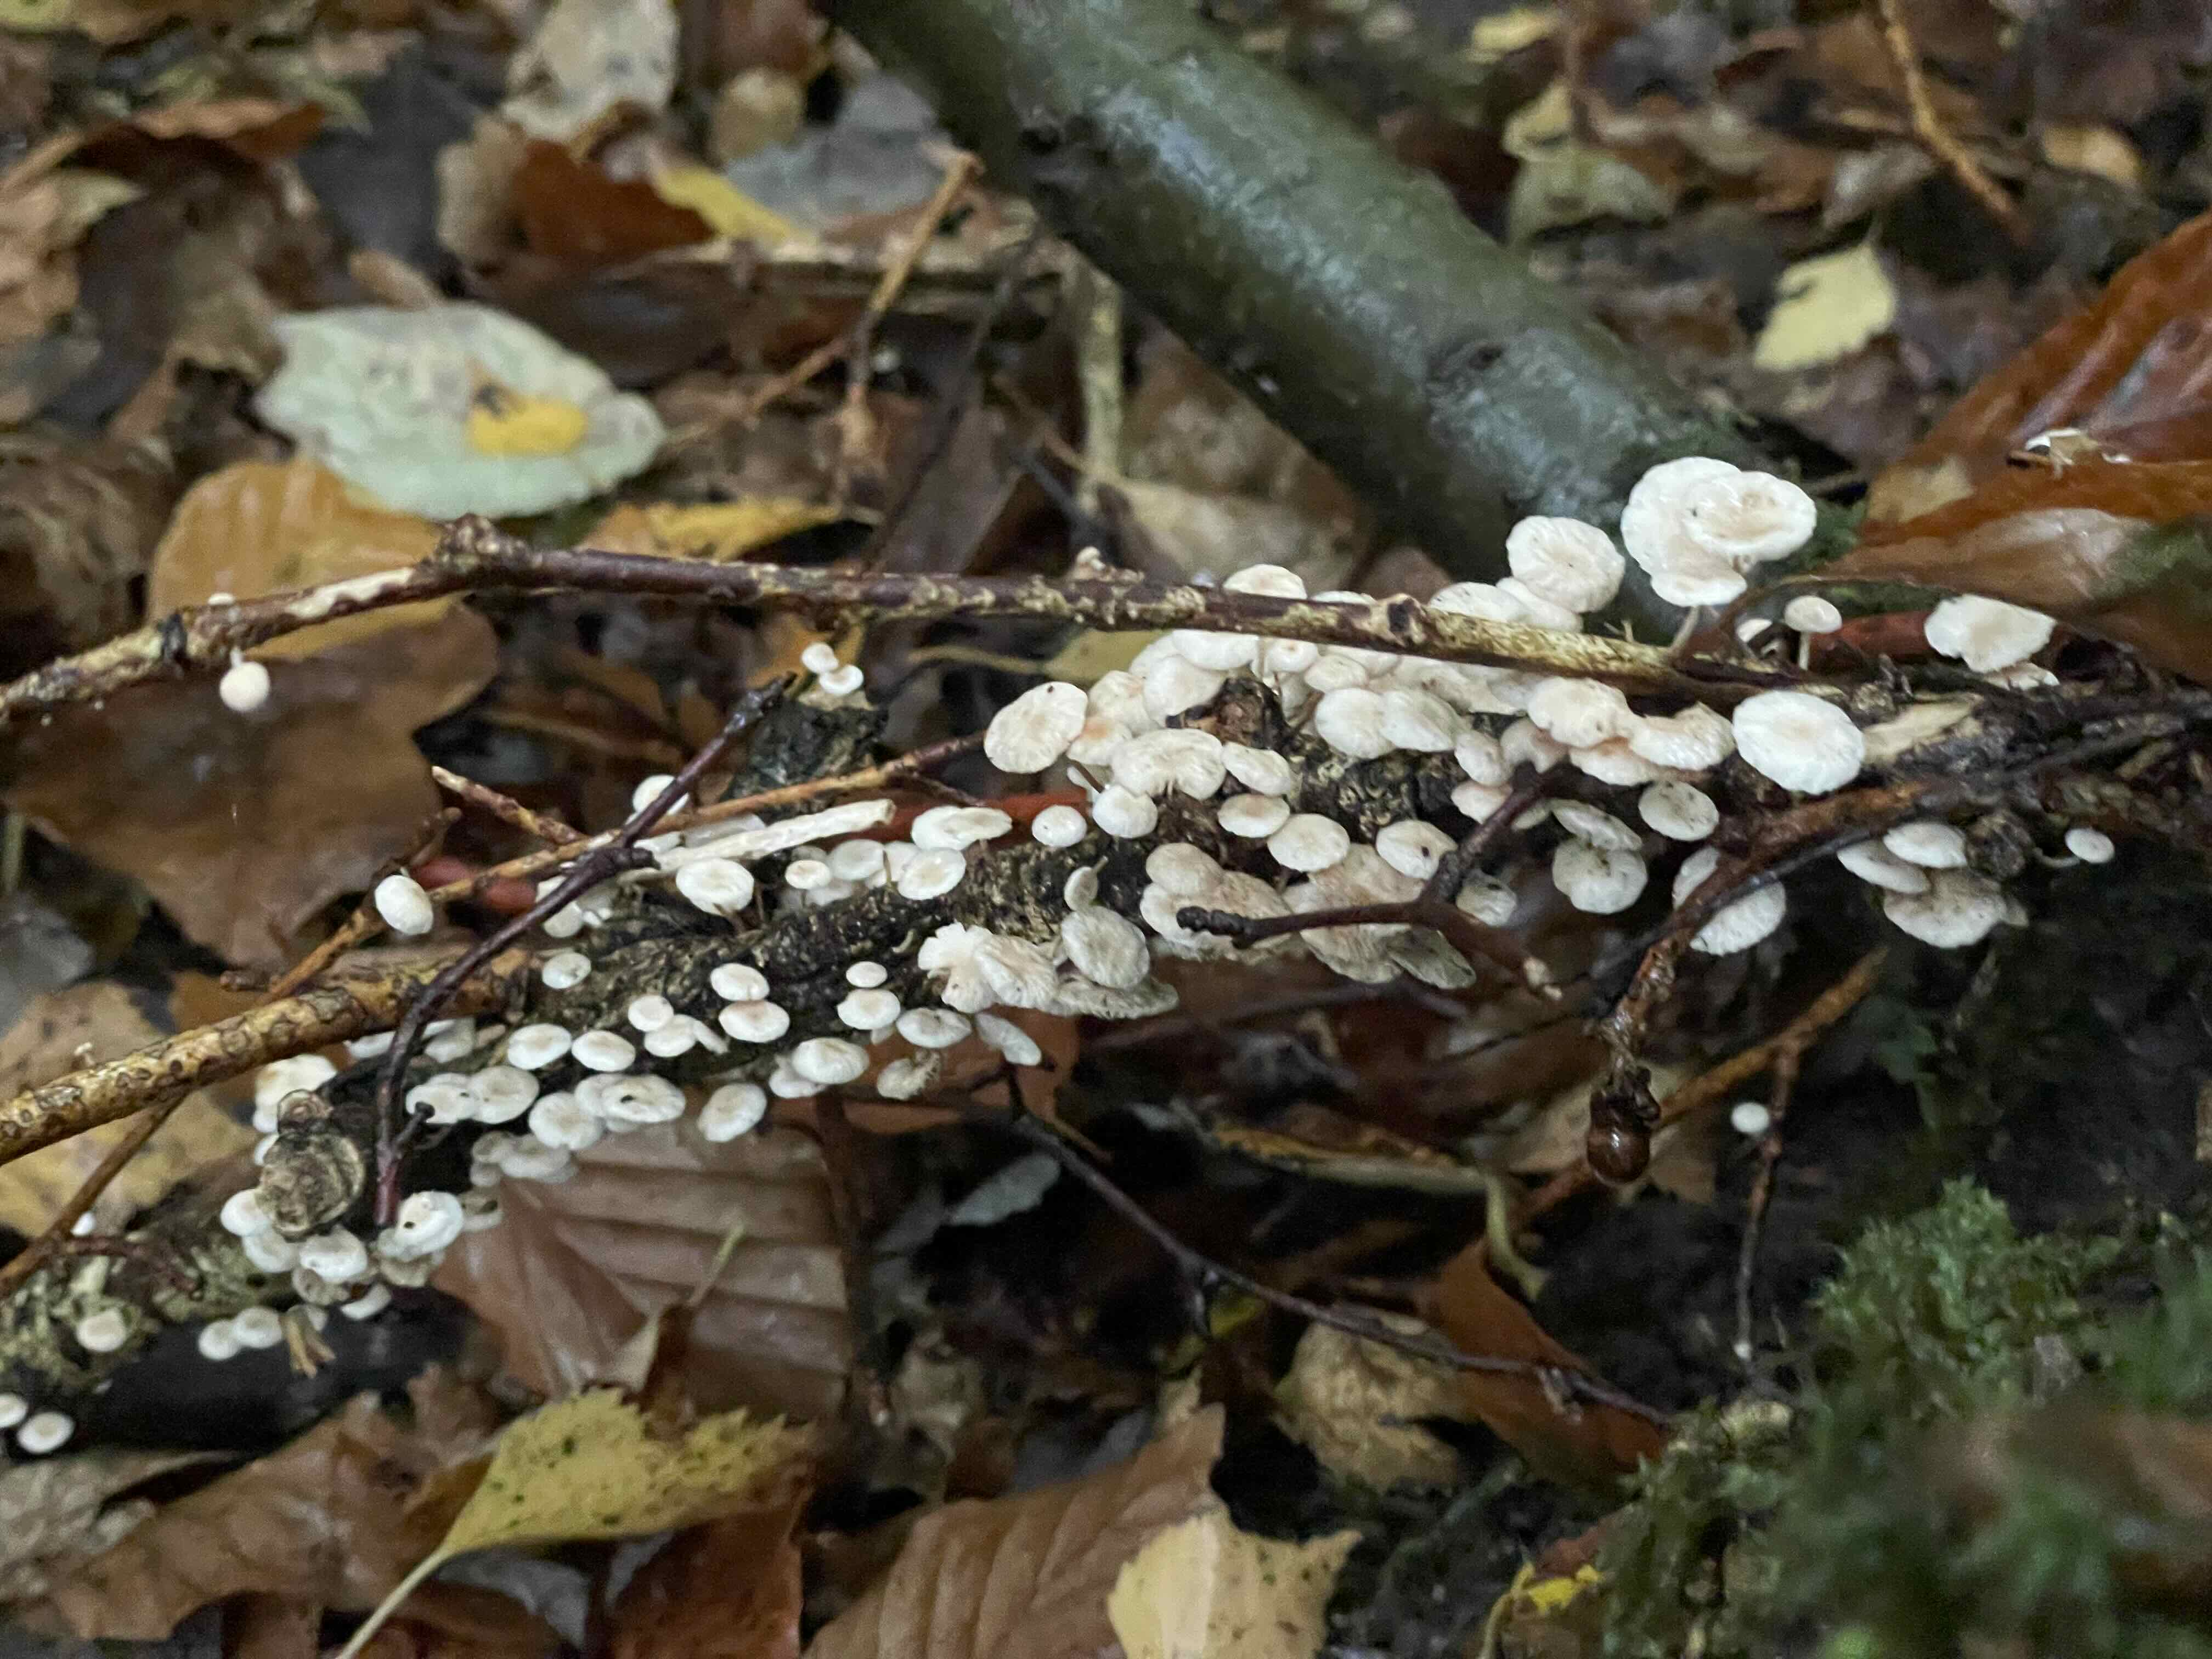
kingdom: Fungi
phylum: Basidiomycota
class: Agaricomycetes
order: Agaricales
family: Omphalotaceae
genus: Collybiopsis
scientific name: Collybiopsis ramealis
